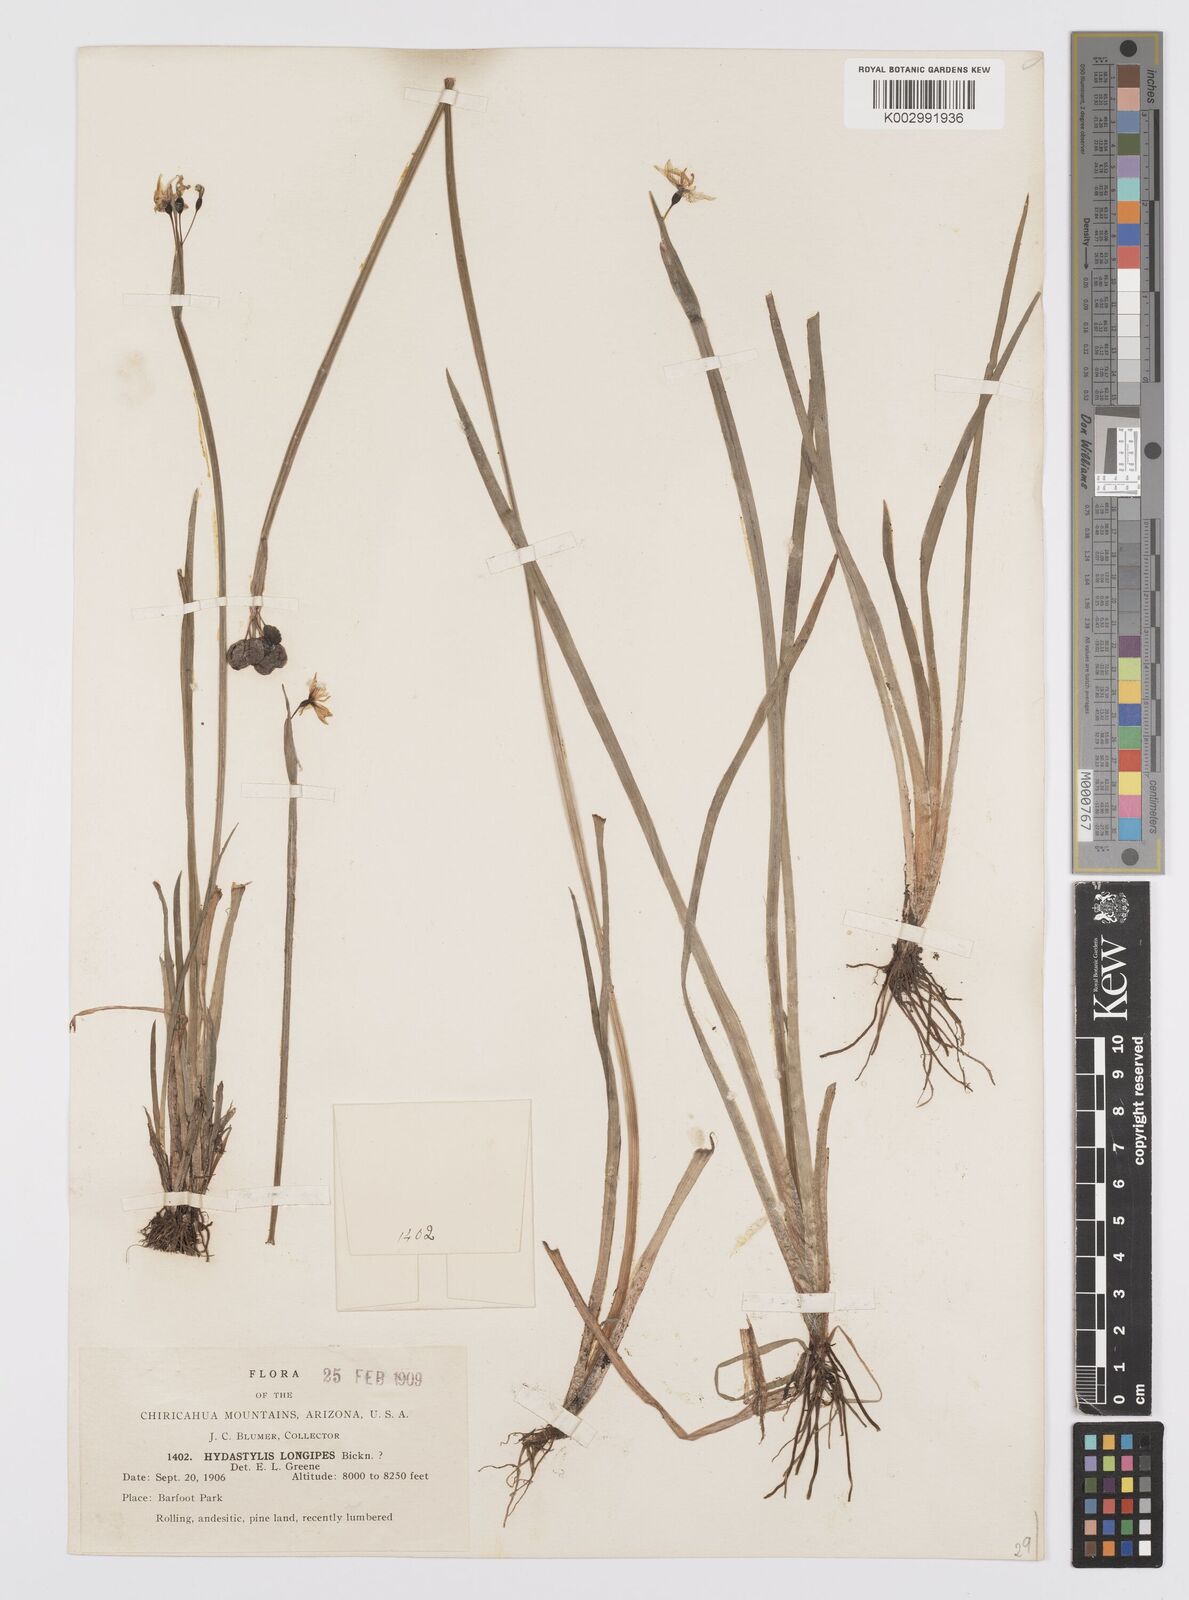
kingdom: Plantae
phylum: Tracheophyta
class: Liliopsida
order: Asparagales
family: Iridaceae
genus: Sisyrinchium
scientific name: Sisyrinchium longipes
